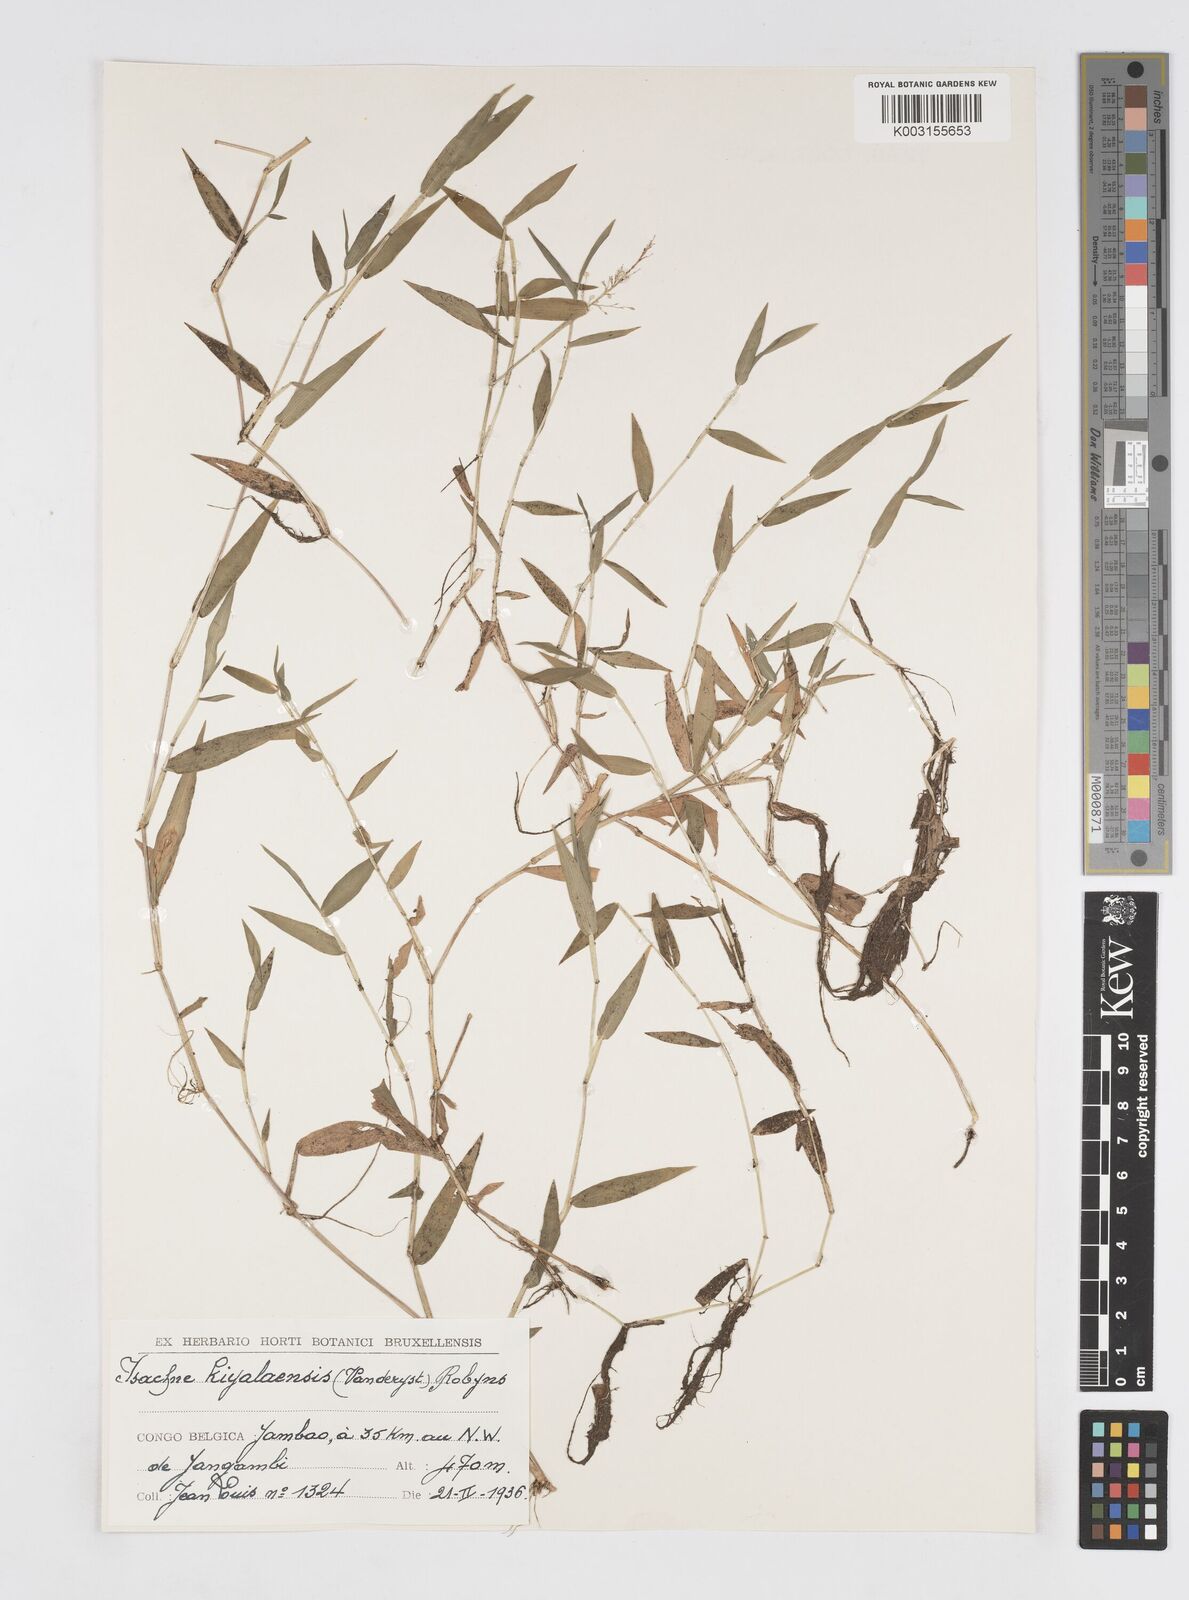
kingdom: Plantae
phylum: Tracheophyta
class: Liliopsida
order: Poales
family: Poaceae
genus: Isachne
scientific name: Isachne kiyalaensis
